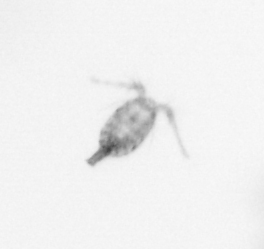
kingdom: Animalia
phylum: Arthropoda
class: Copepoda
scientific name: Copepoda
